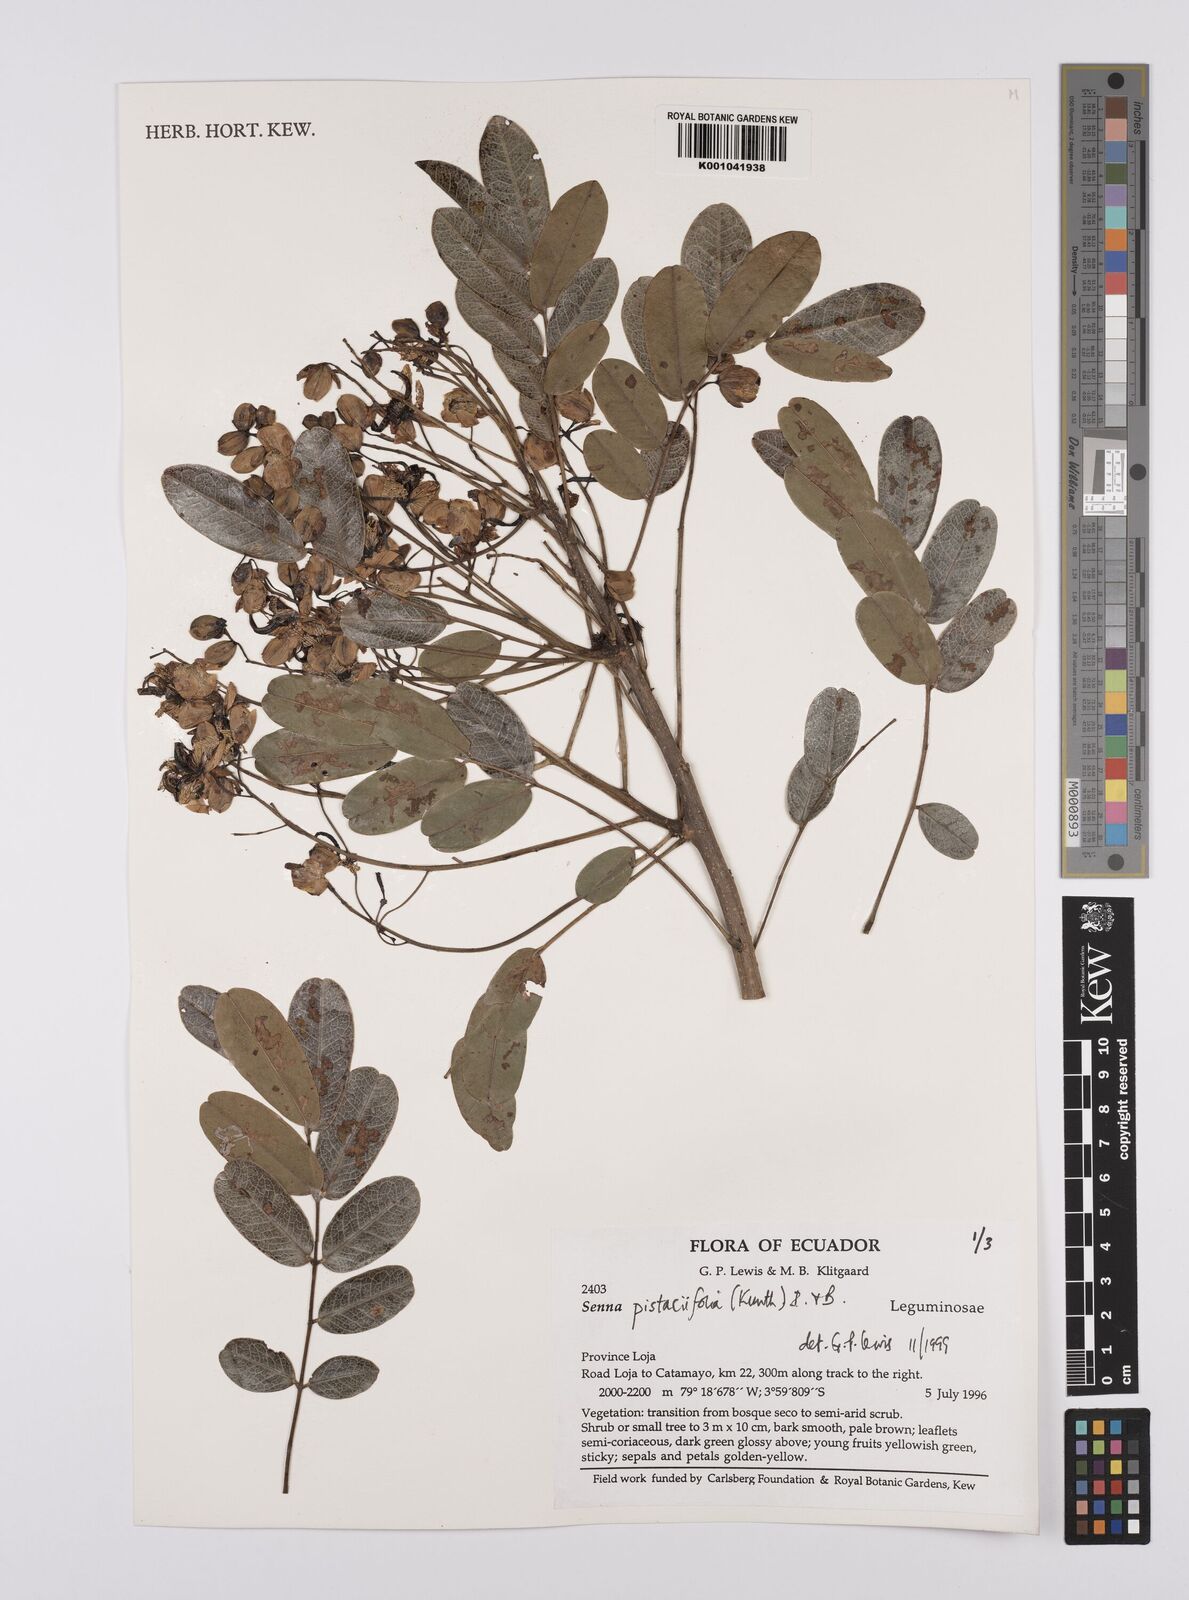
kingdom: Plantae
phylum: Tracheophyta
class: Magnoliopsida
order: Fabales
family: Fabaceae
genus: Senna
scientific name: Senna pistaciifolia
